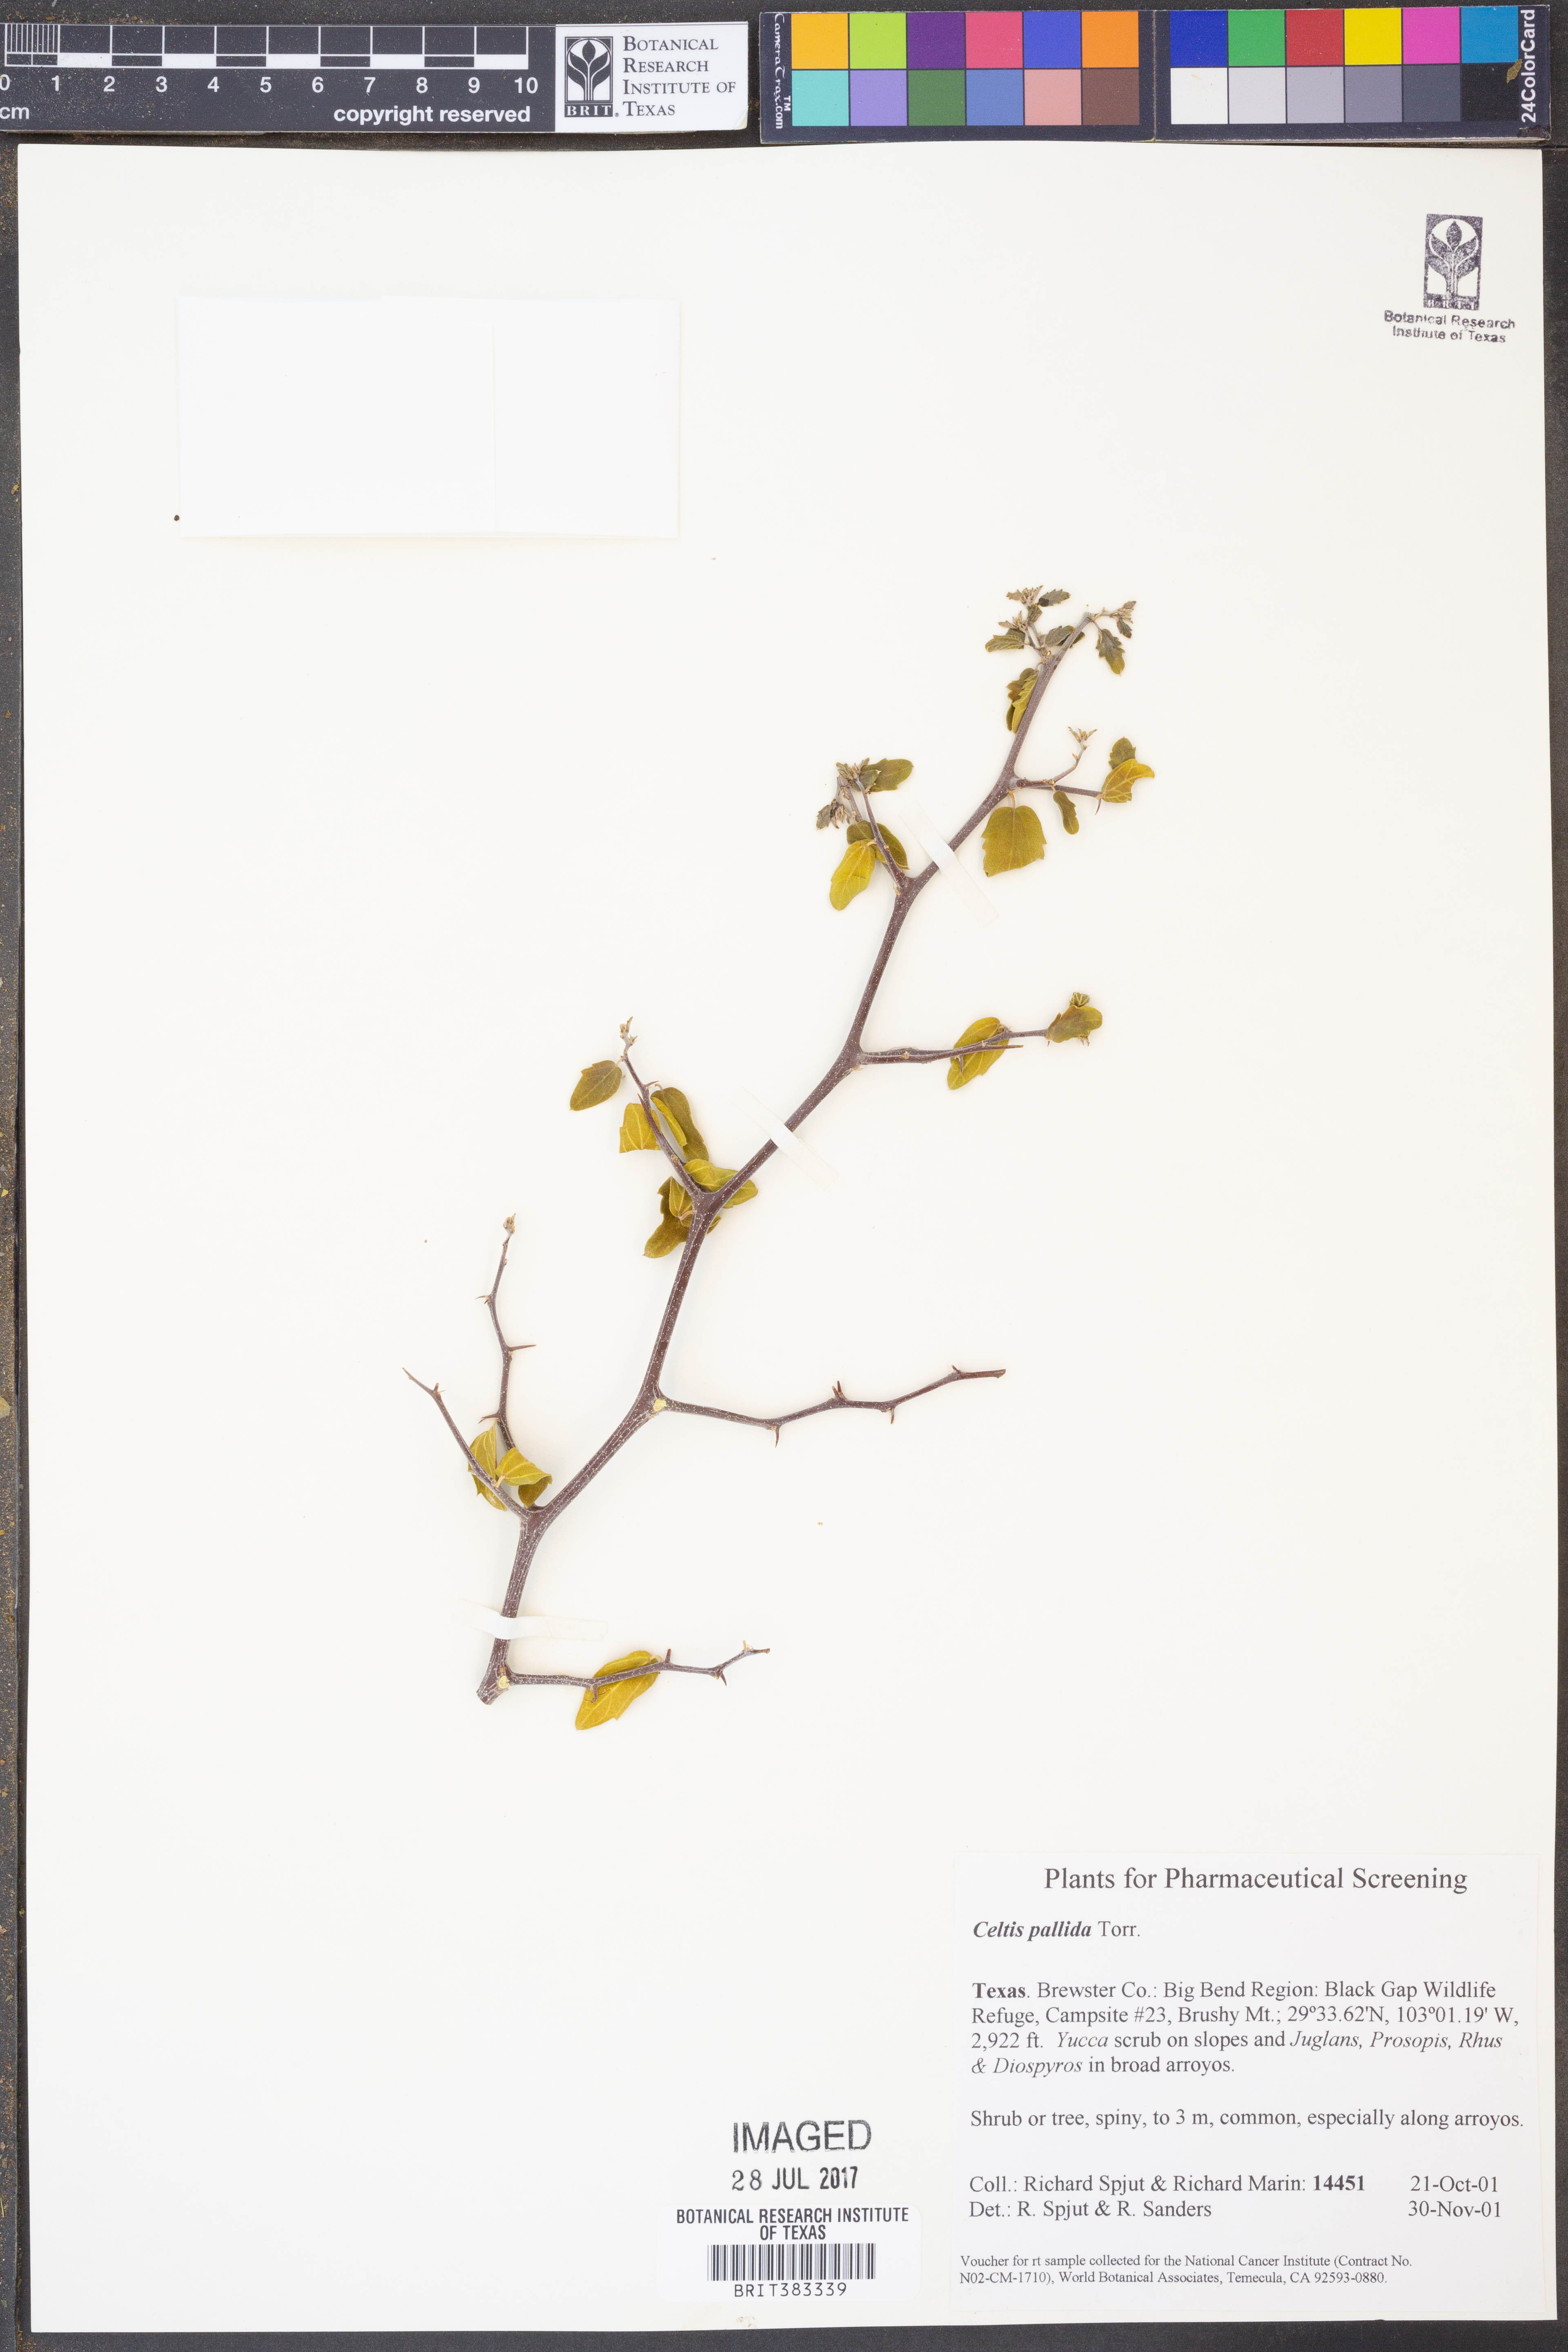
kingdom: Plantae
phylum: Tracheophyta
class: Magnoliopsida
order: Rosales
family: Cannabaceae
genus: Celtis
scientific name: Celtis pallida
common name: Desert hackberry
